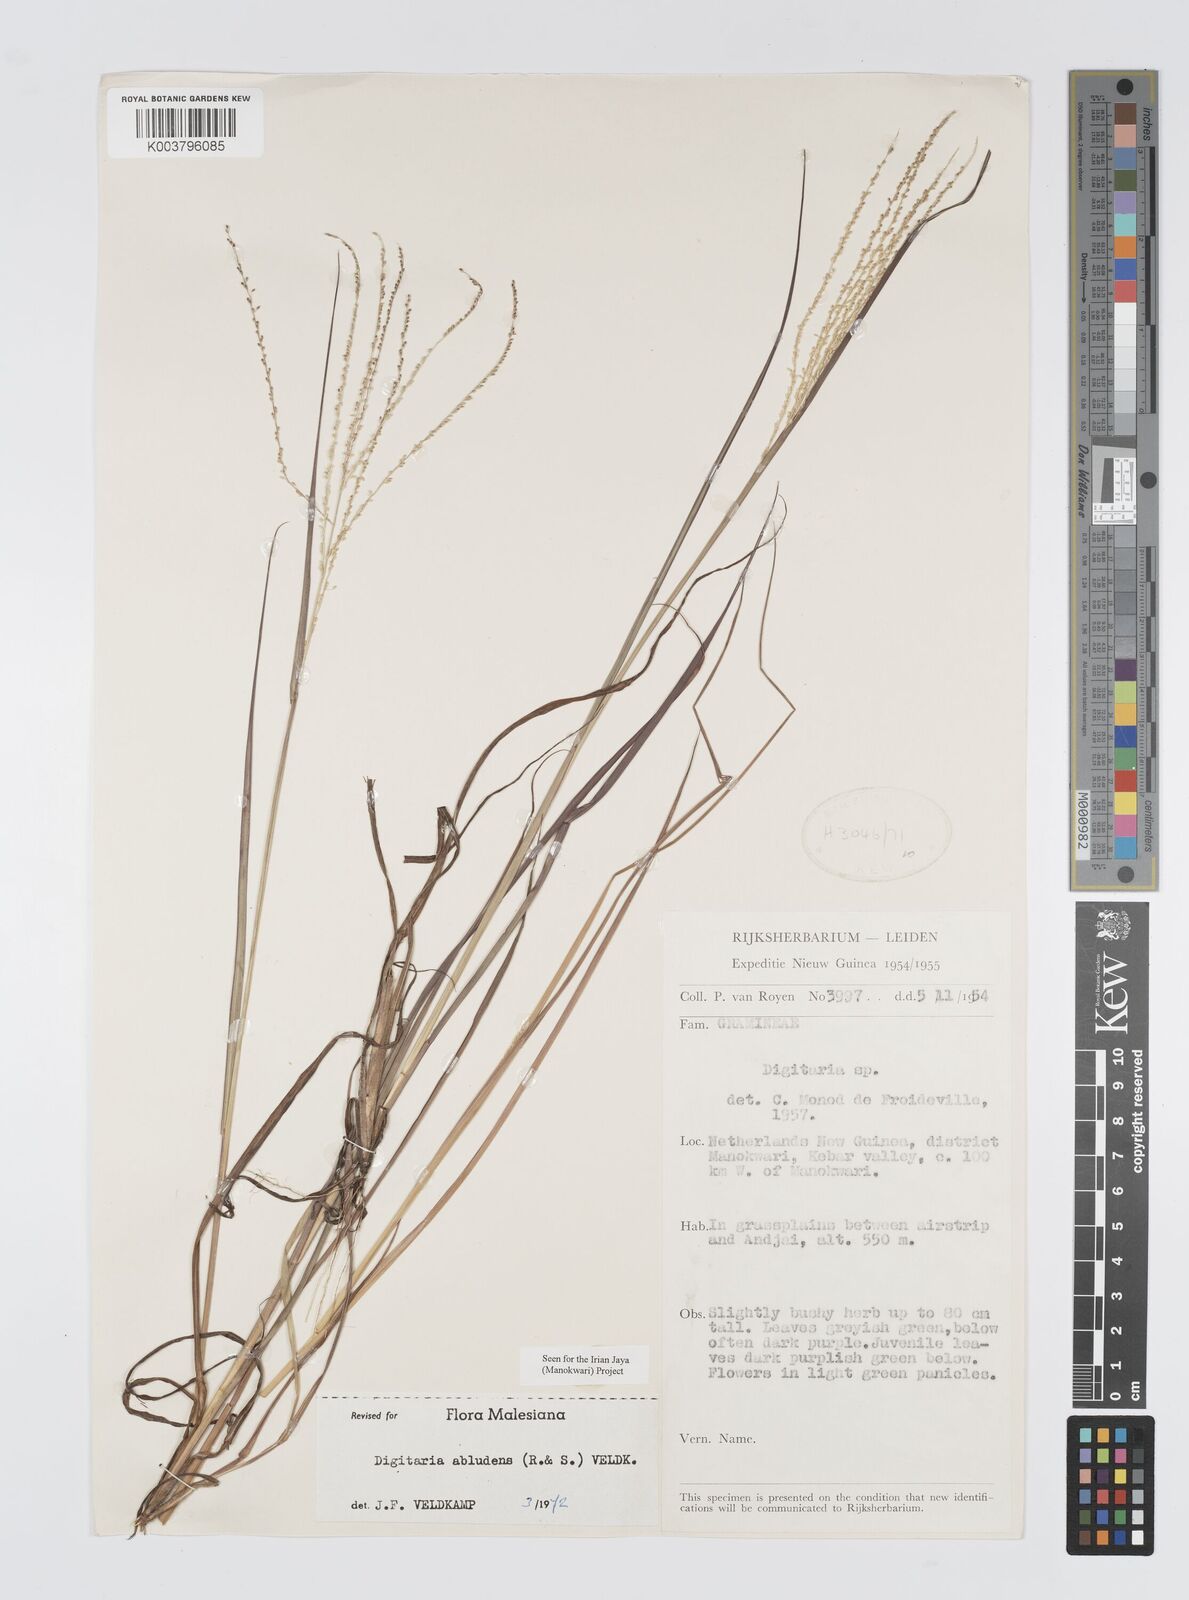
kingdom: Plantae
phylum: Tracheophyta
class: Liliopsida
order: Poales
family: Poaceae
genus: Digitaria
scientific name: Digitaria abludens
